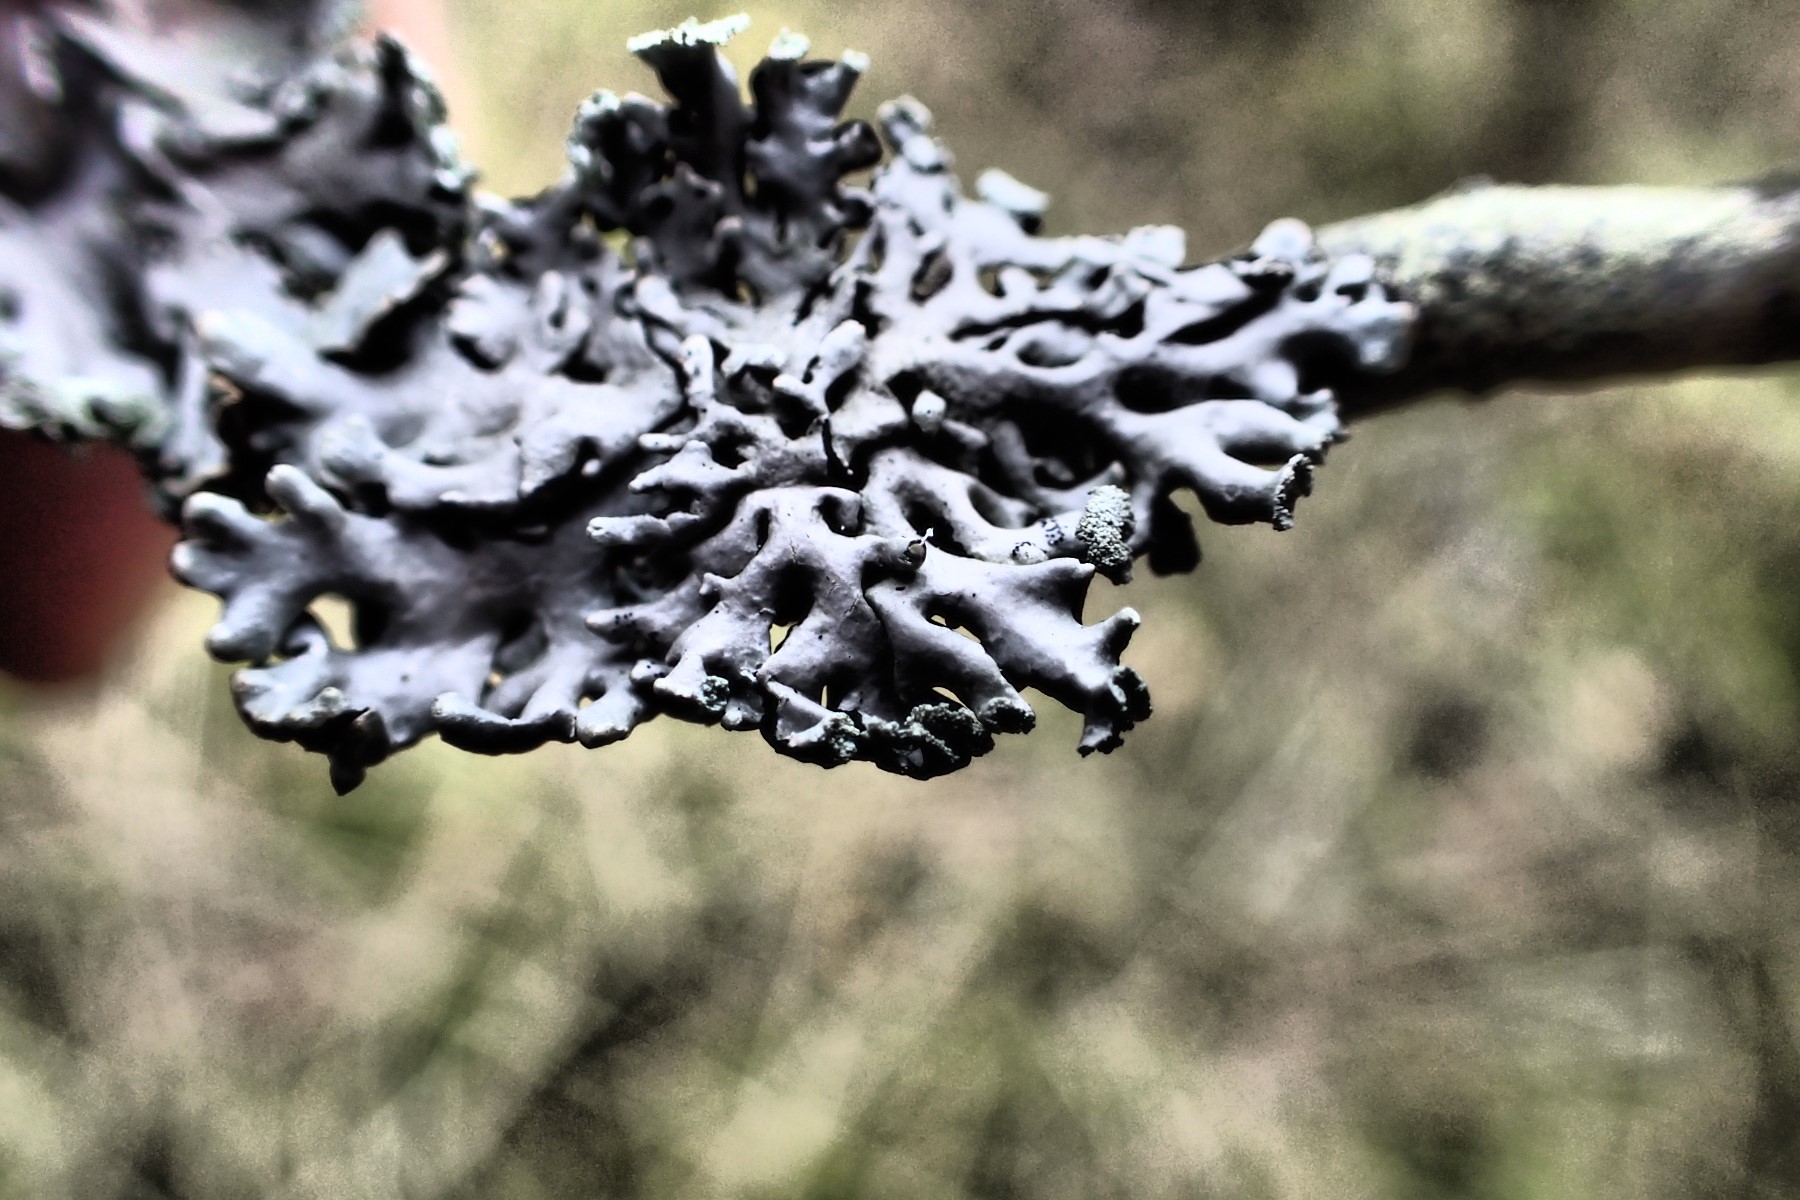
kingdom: Fungi
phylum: Ascomycota
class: Lecanoromycetes
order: Lecanorales
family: Parmeliaceae
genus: Hypogymnia
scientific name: Hypogymnia physodes
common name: almindelig kvistlav
